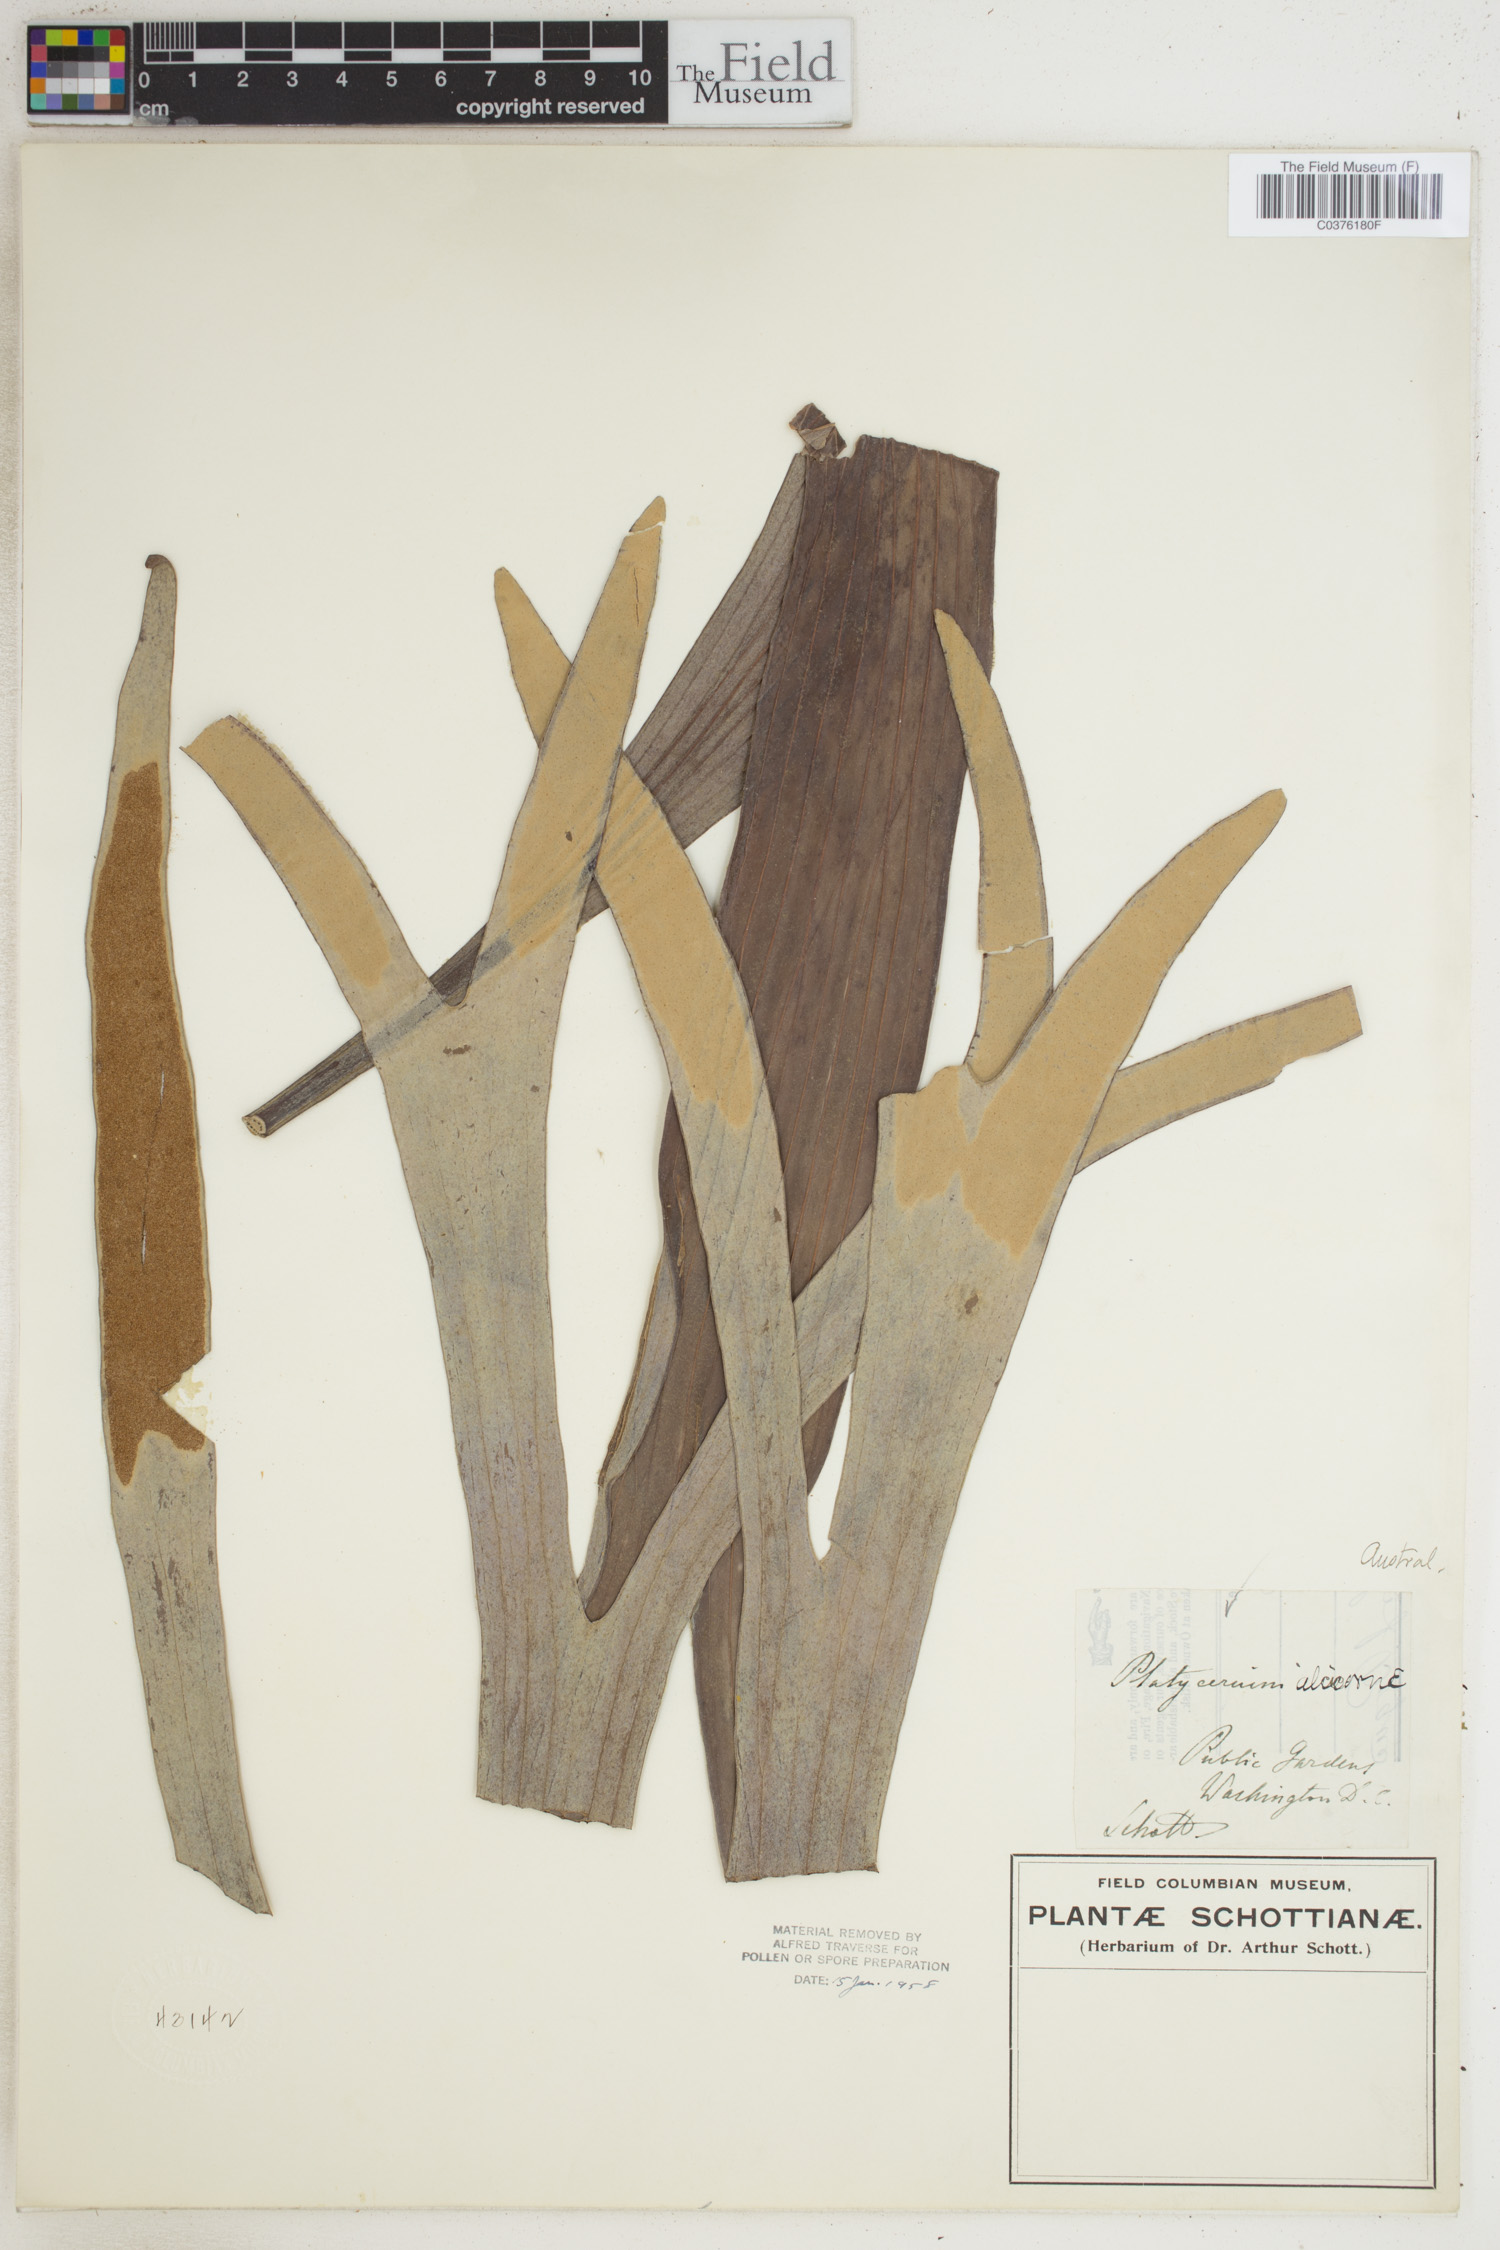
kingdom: Plantae
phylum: Tracheophyta
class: Polypodiopsida
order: Polypodiales
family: Polypodiaceae
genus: Platycerium
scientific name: Platycerium alcicorne
